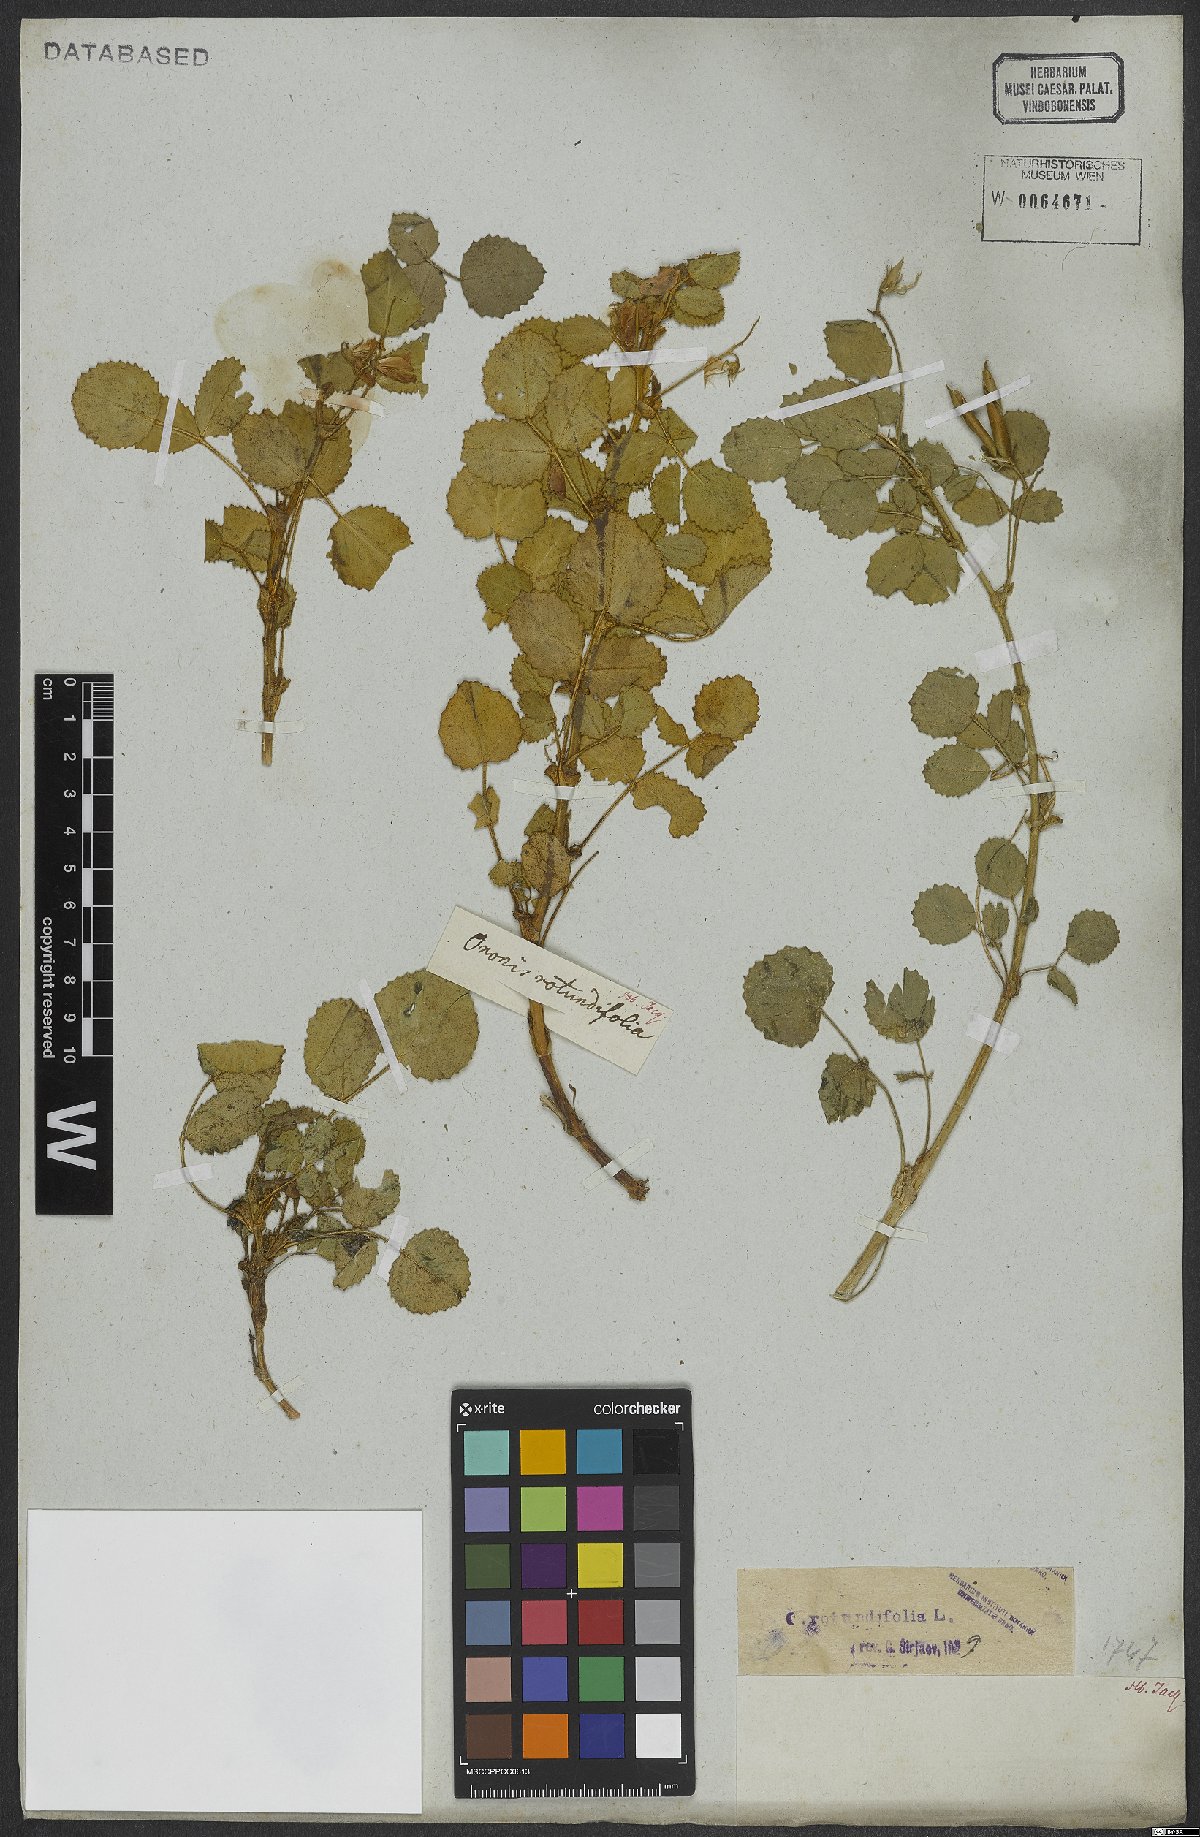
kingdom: Plantae
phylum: Tracheophyta
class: Magnoliopsida
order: Fabales
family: Fabaceae
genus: Ononis
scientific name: Ononis rotundifolia
